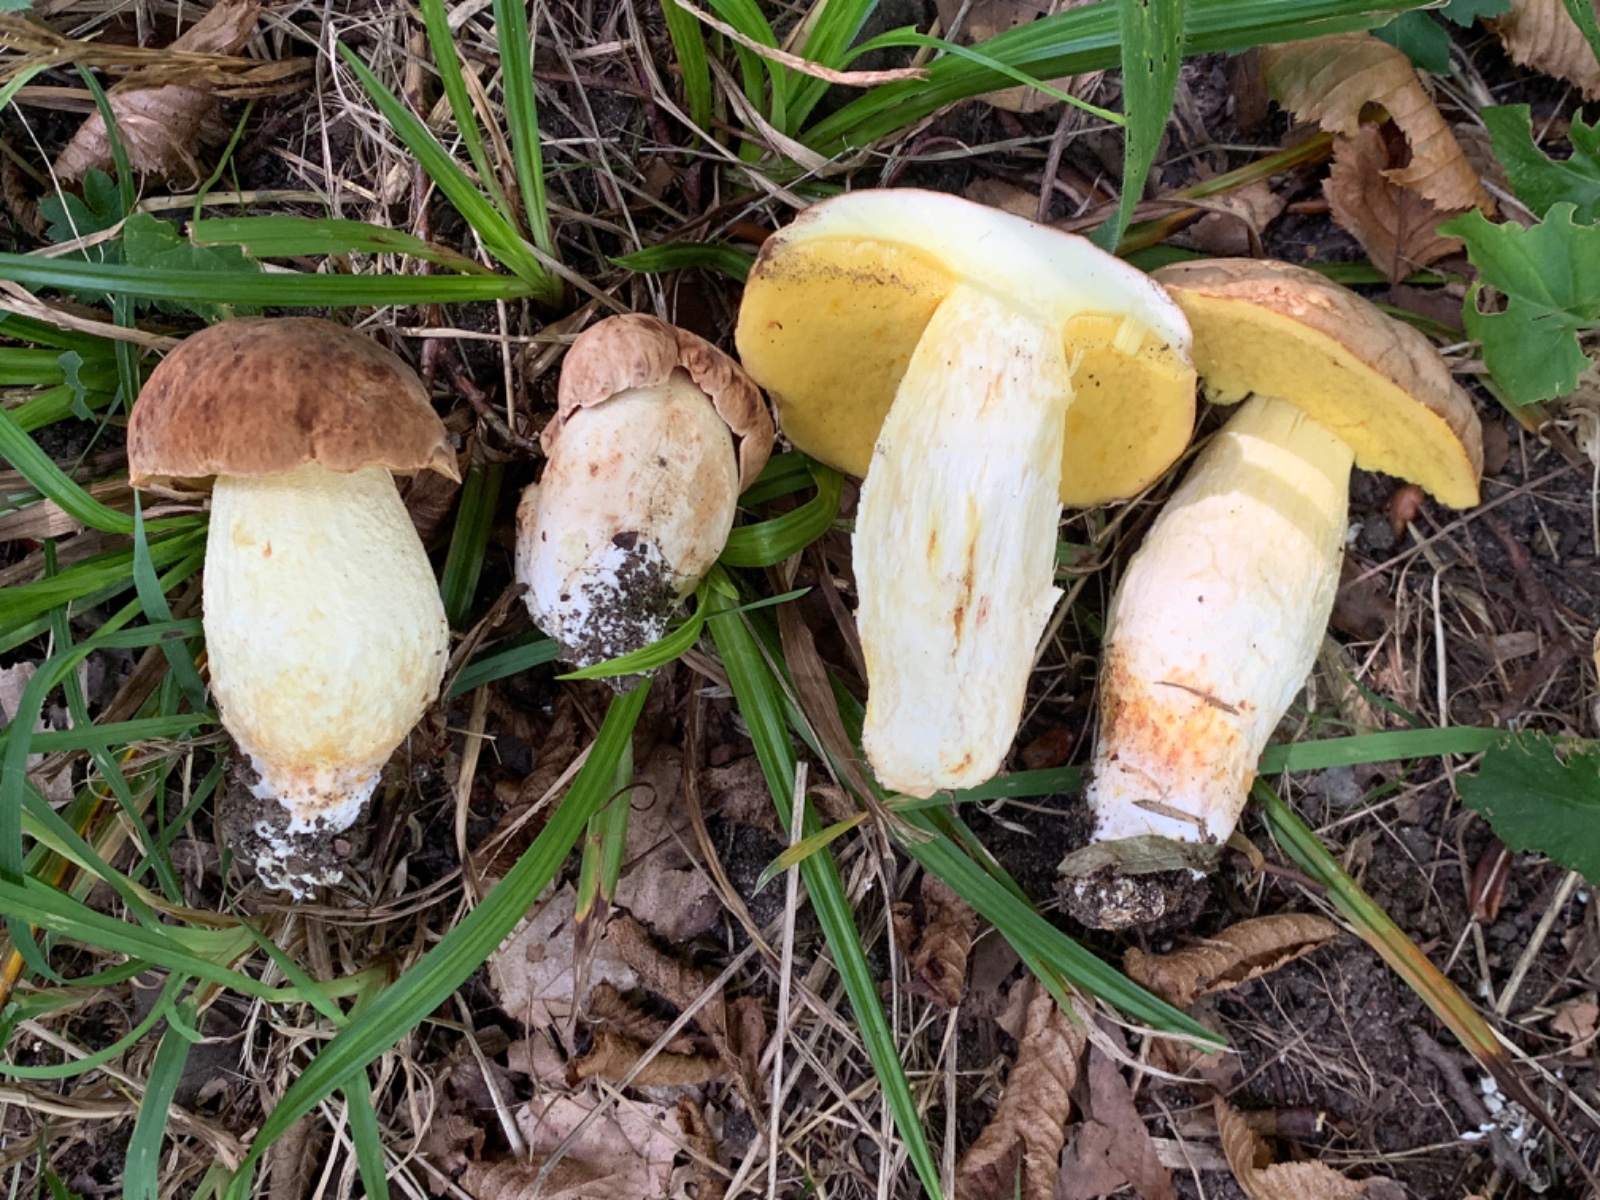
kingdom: Fungi
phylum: Basidiomycota
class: Agaricomycetes
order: Boletales
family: Boletaceae
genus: Butyriboletus
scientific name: Butyriboletus appendiculatus
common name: tenstokket rørhat
